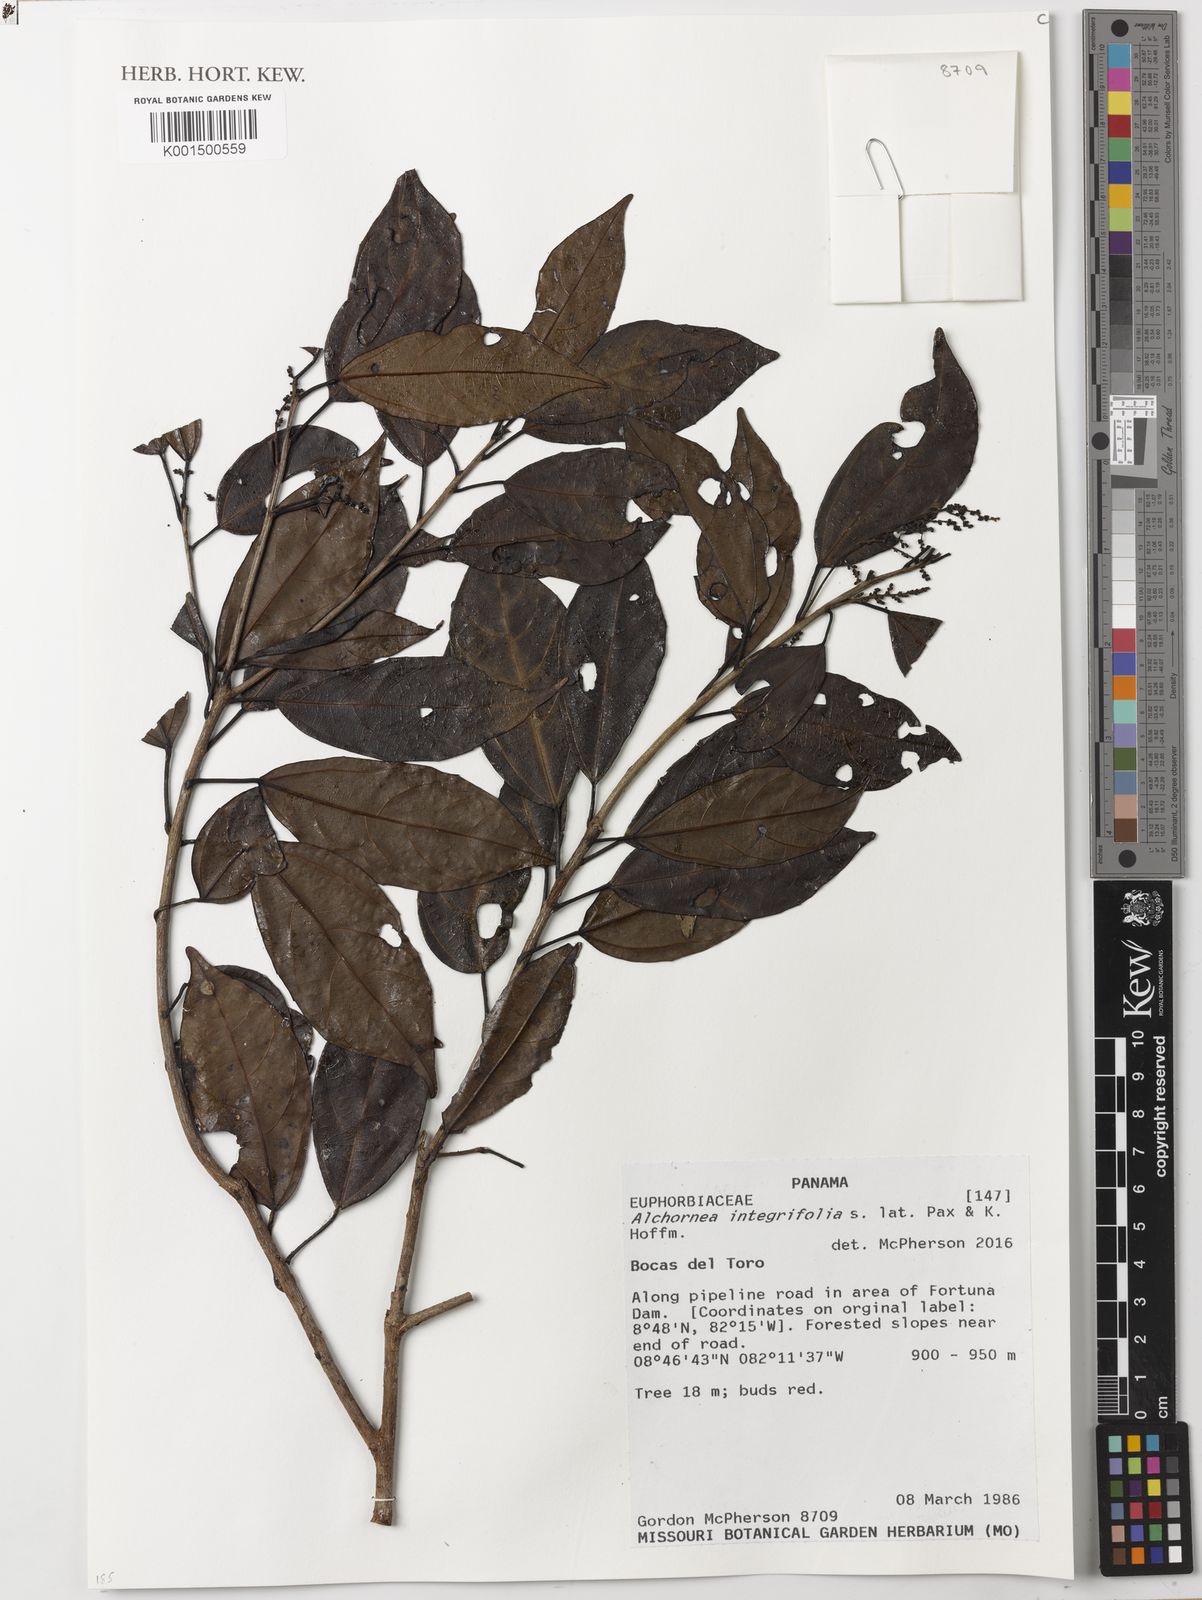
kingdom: Plantae
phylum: Tracheophyta
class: Magnoliopsida
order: Malpighiales
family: Euphorbiaceae
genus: Alchornea
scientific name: Alchornea integrifolia
